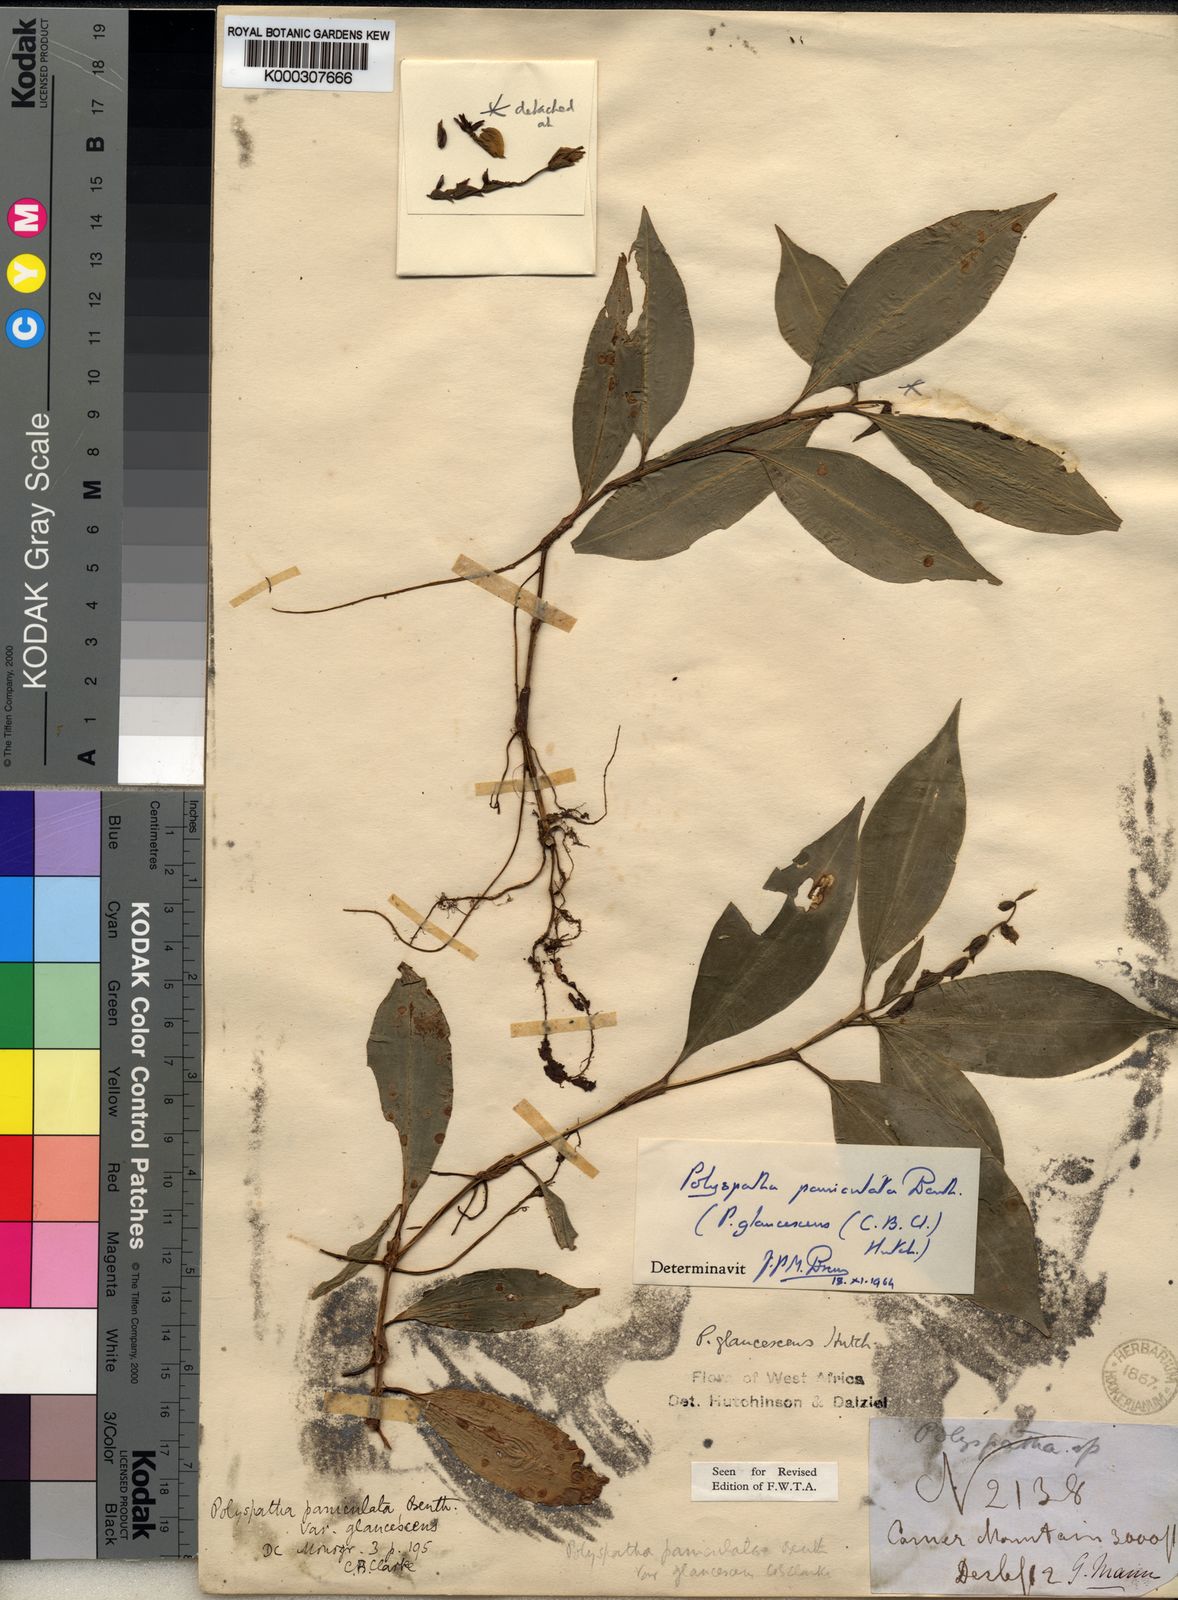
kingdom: Plantae
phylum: Tracheophyta
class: Liliopsida
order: Commelinales
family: Commelinaceae
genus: Polyspatha
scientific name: Polyspatha paniculata
